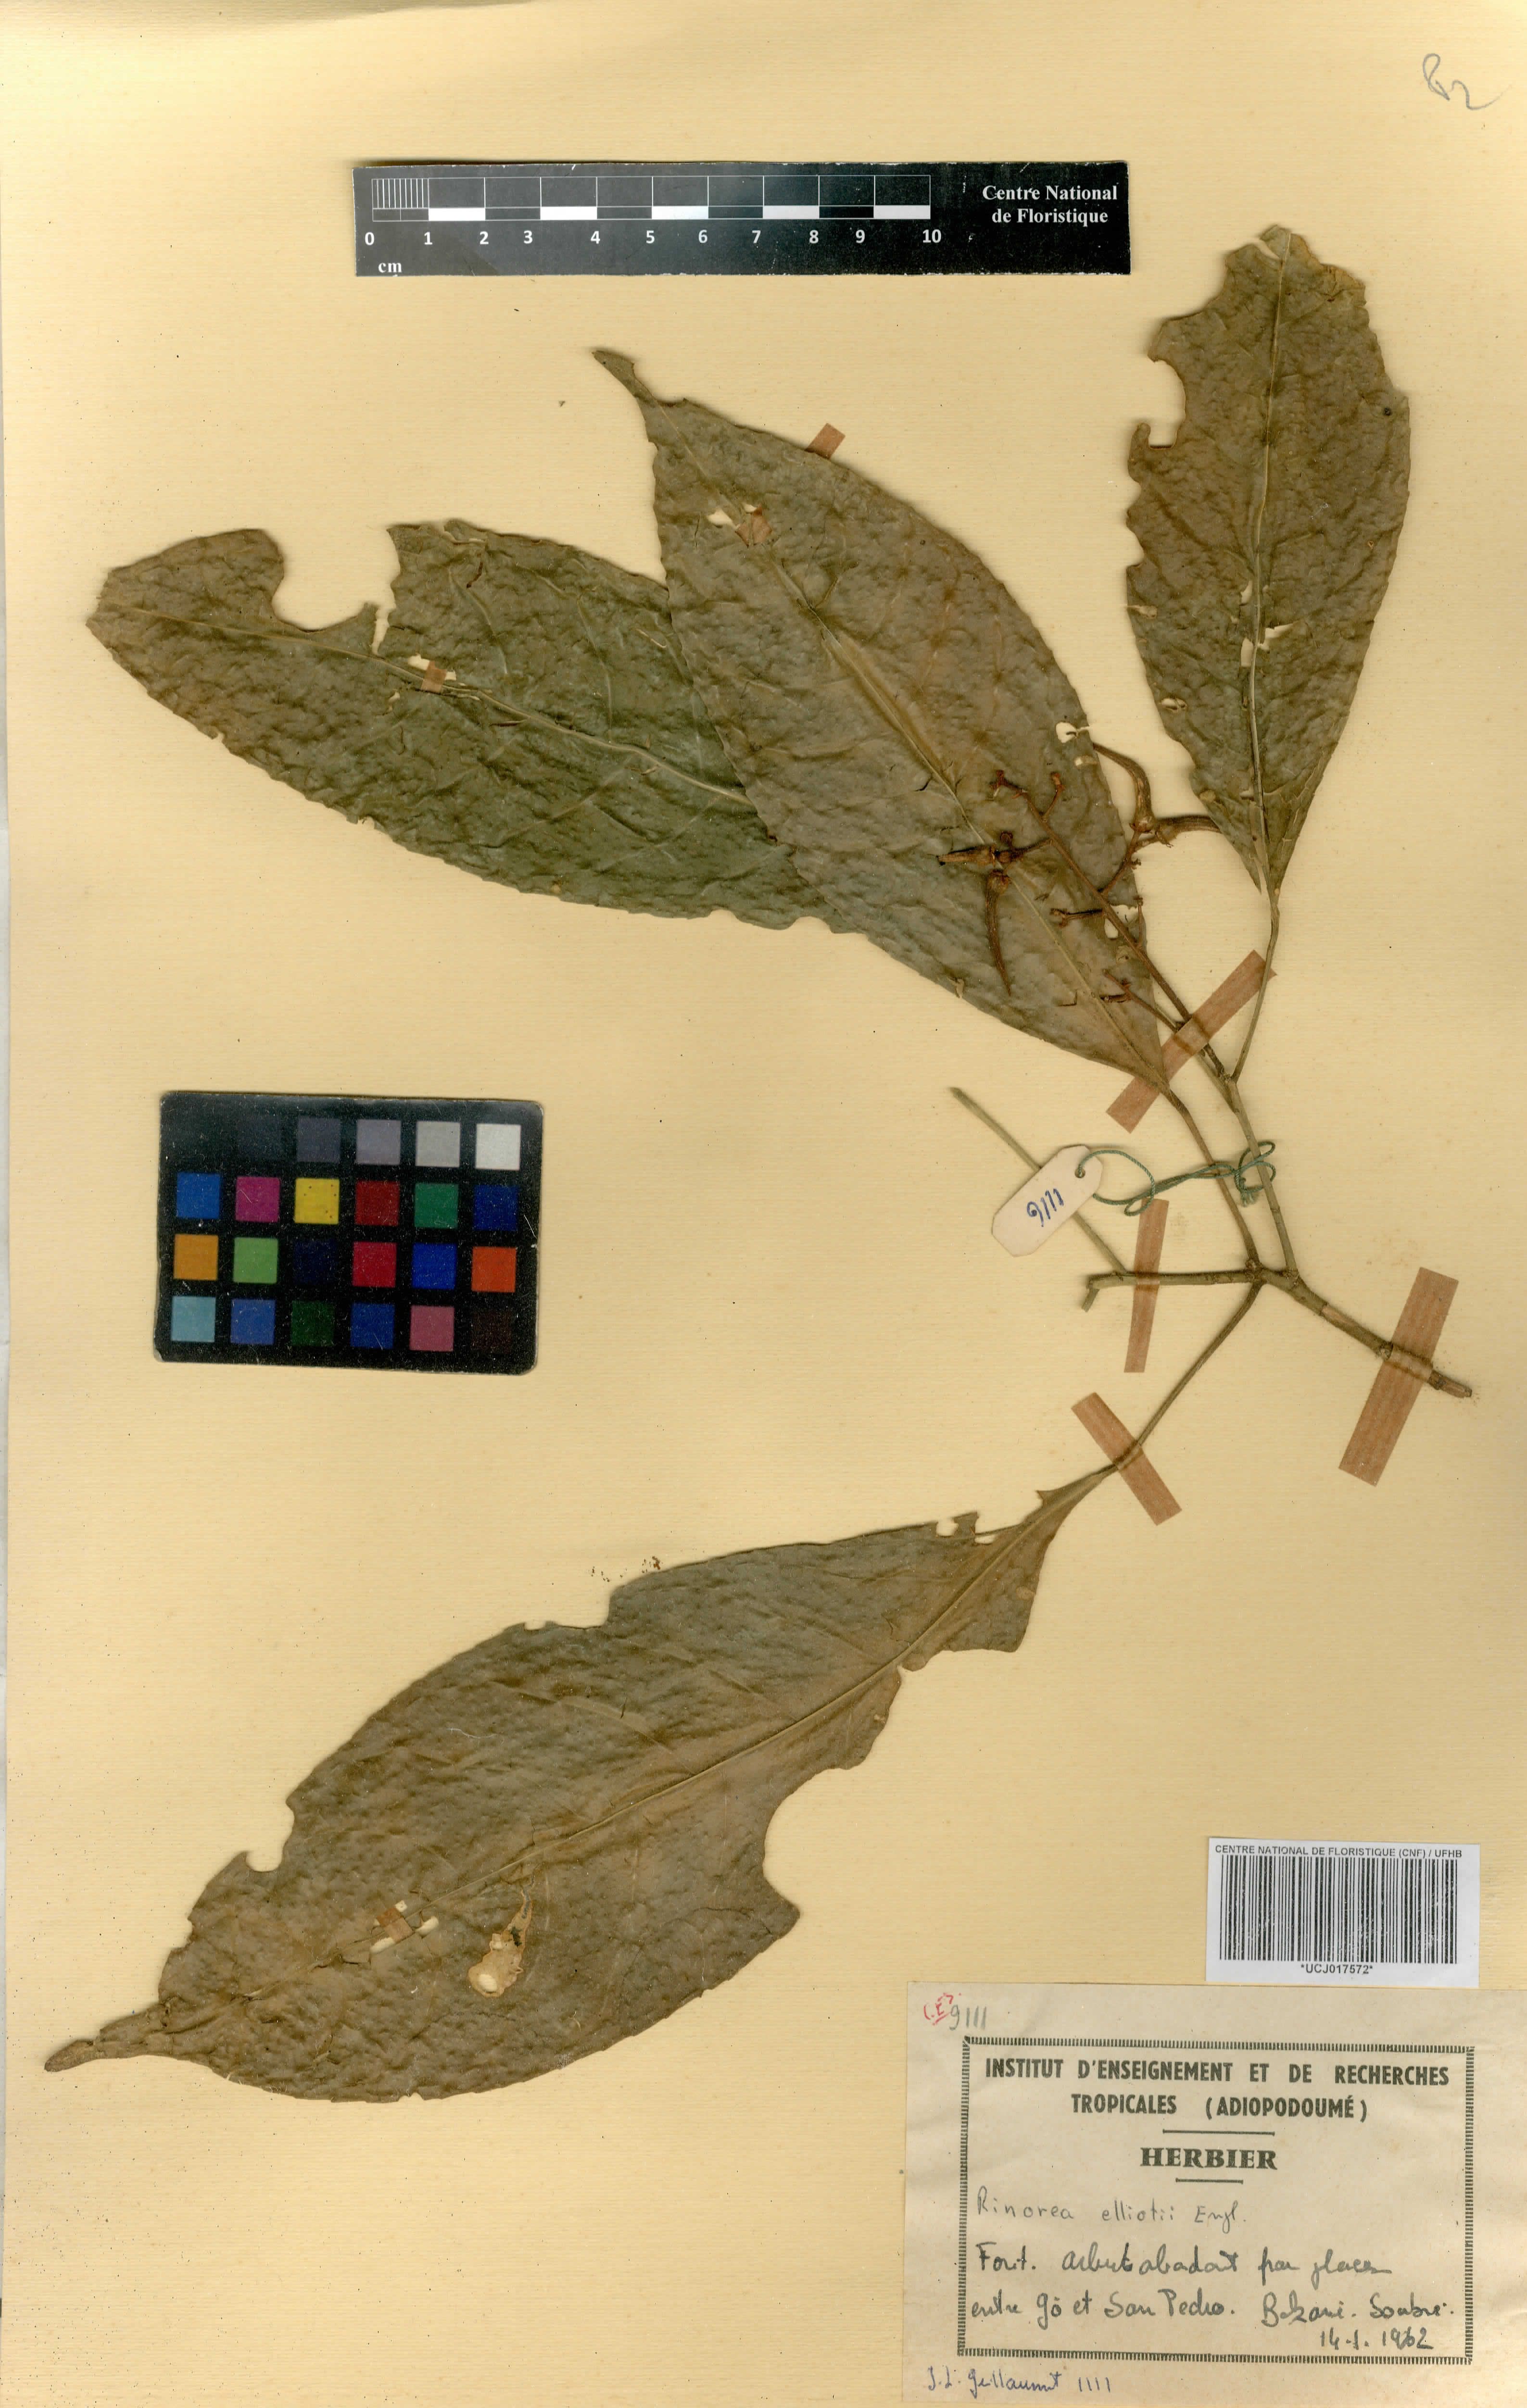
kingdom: Plantae
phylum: Tracheophyta
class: Magnoliopsida
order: Malpighiales
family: Violaceae
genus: Rinorea
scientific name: Rinorea welwitschii
